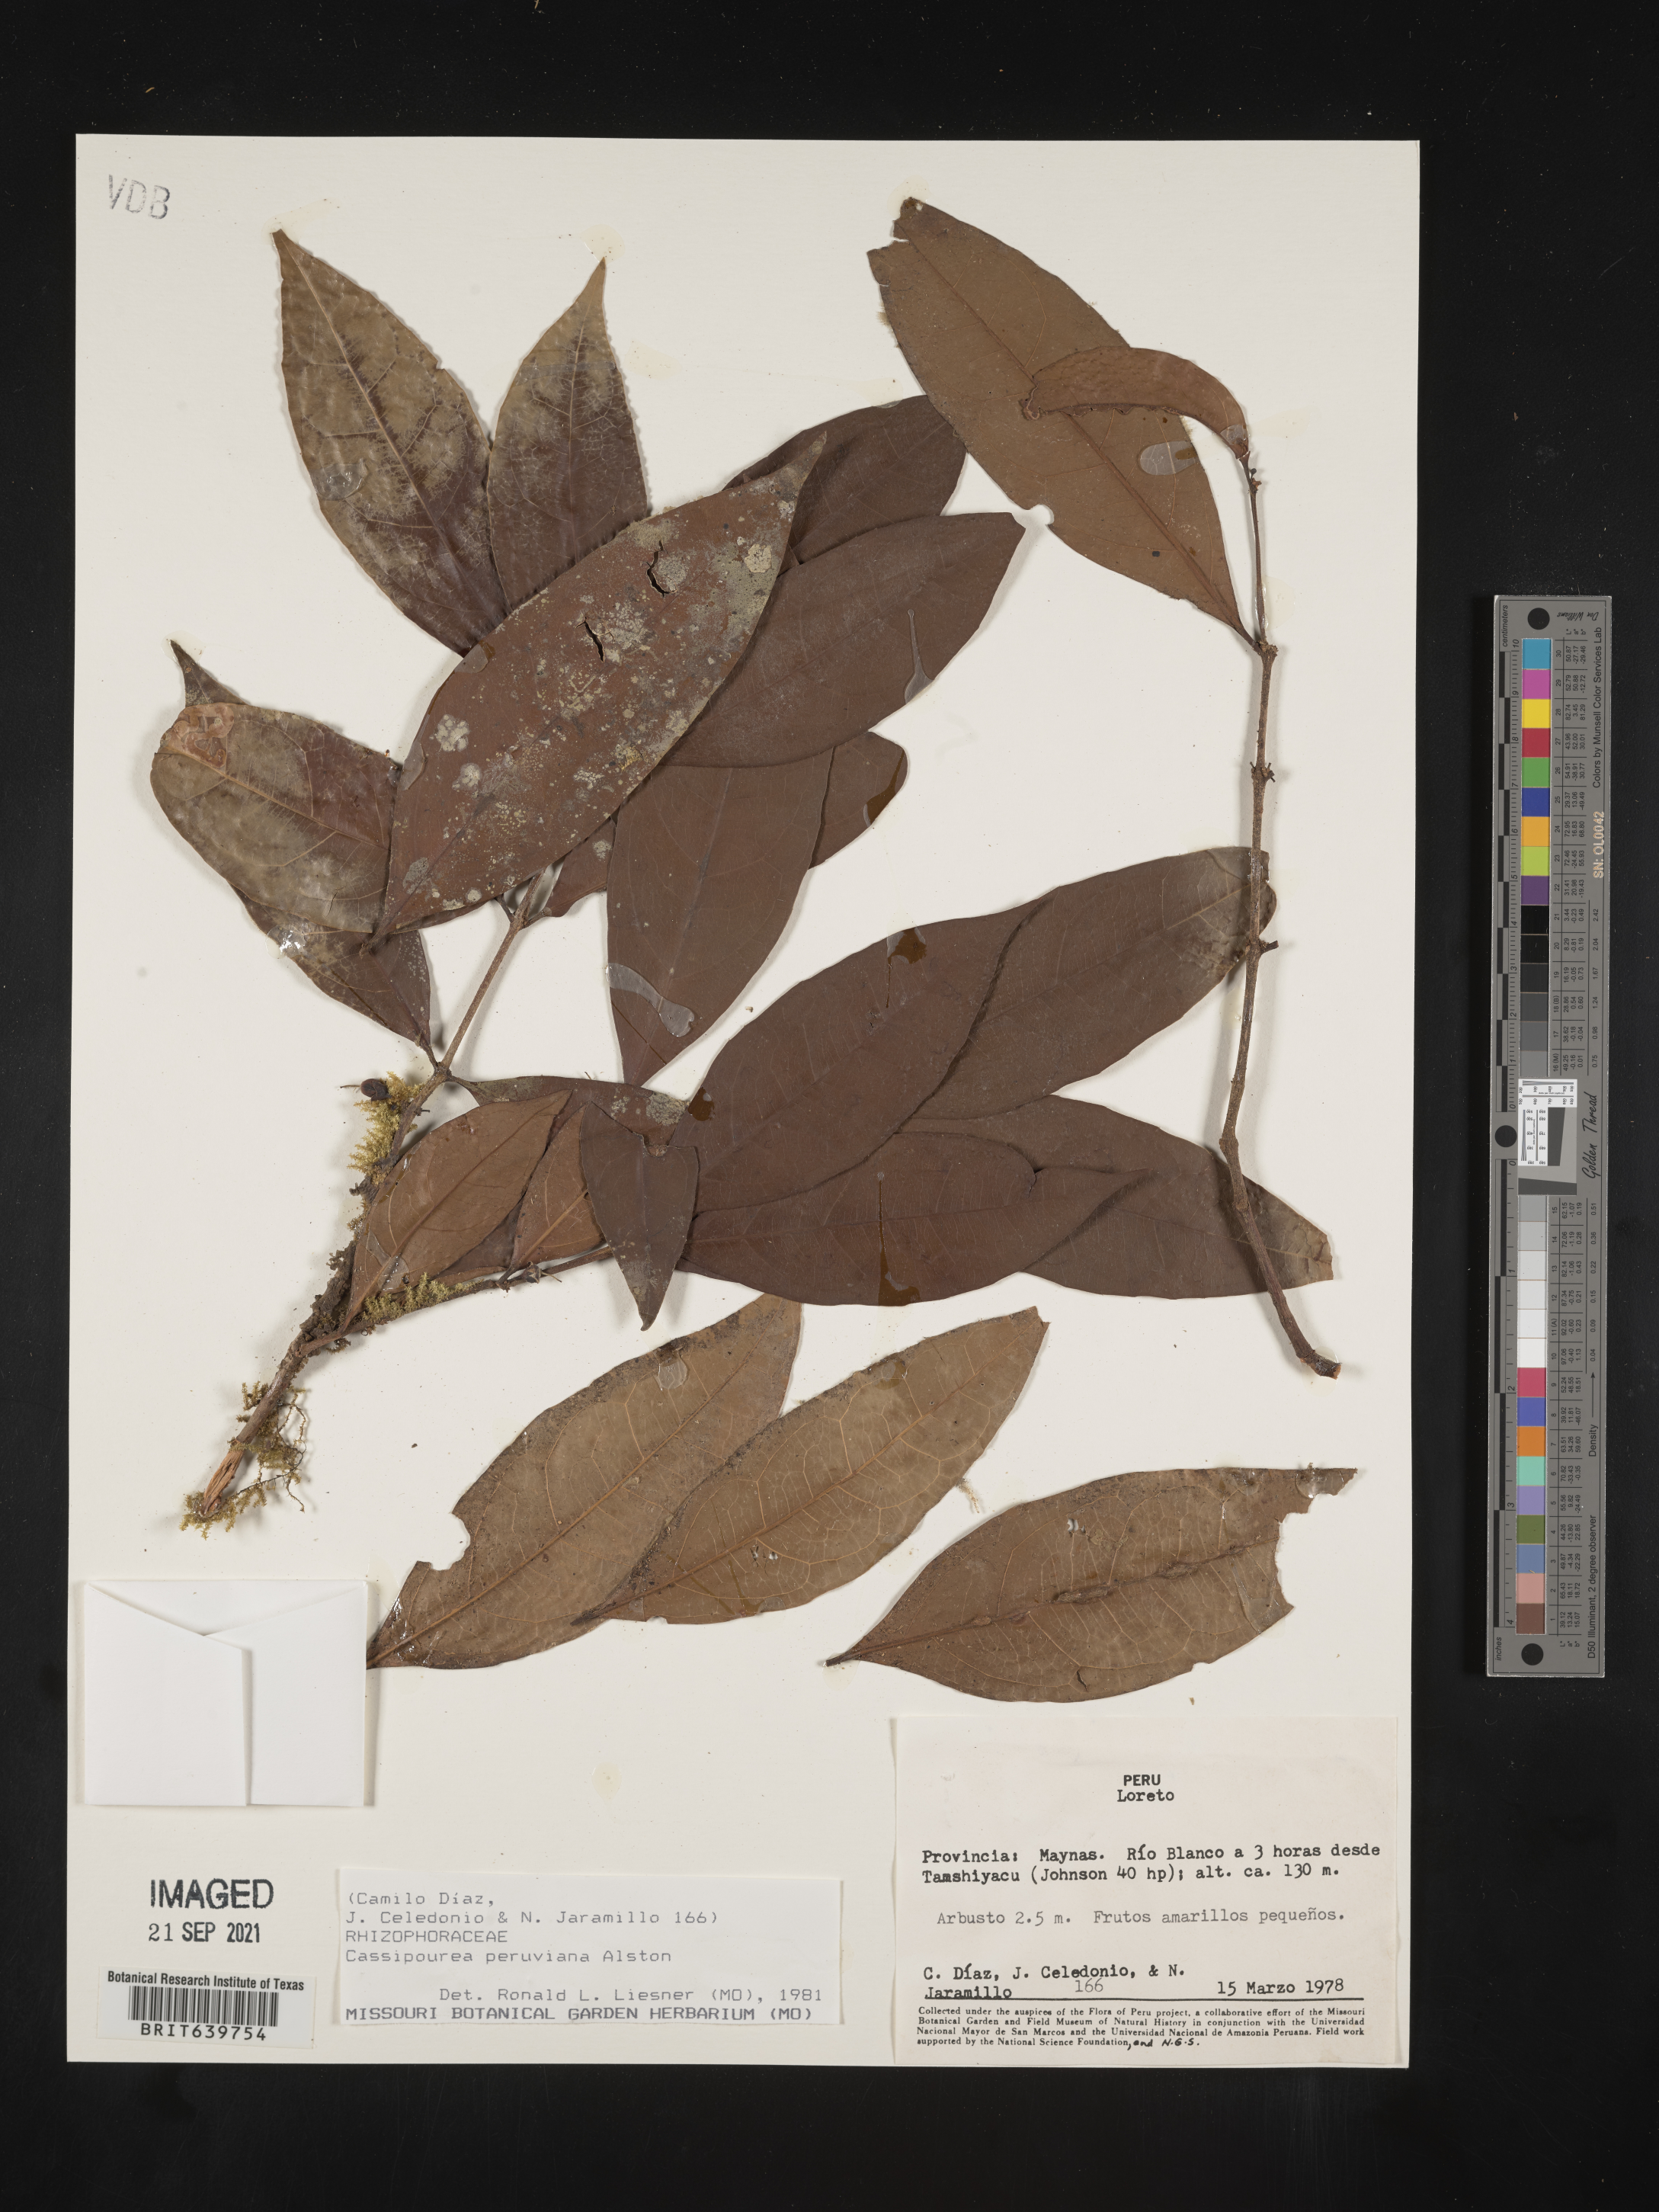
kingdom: Plantae
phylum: Tracheophyta
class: Magnoliopsida
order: Malpighiales
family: Rhizophoraceae
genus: Cassipourea
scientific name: Cassipourea
